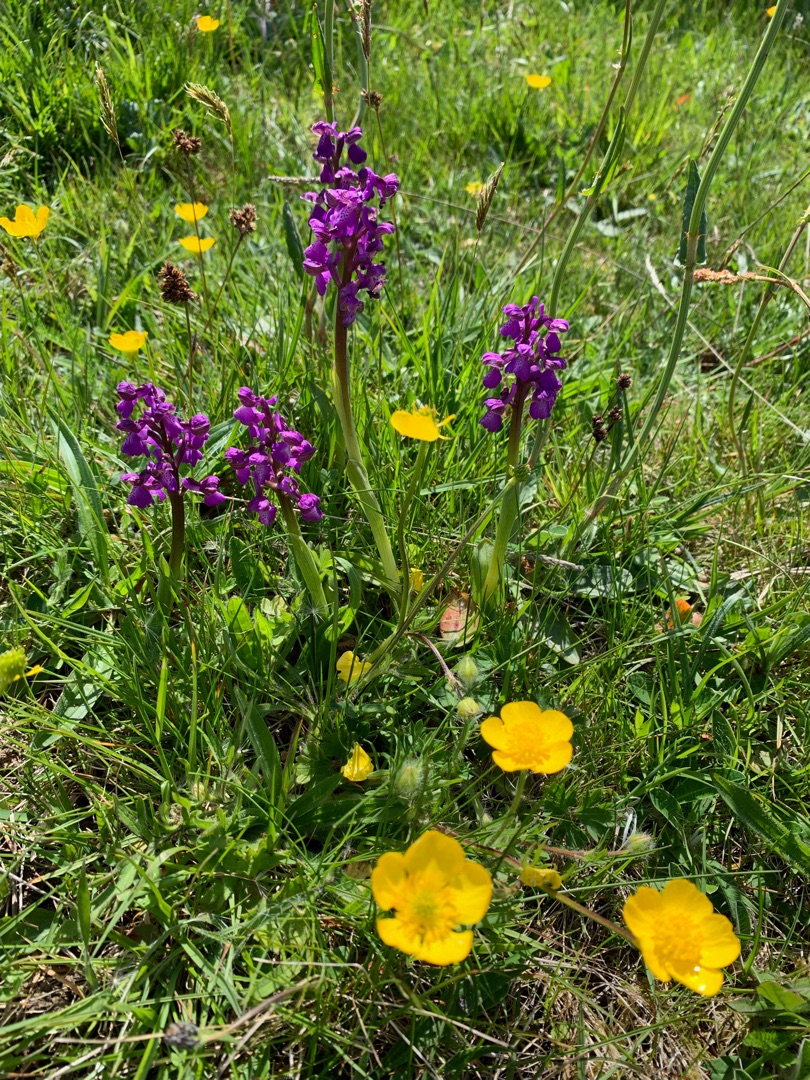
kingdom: Plantae
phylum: Tracheophyta
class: Liliopsida
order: Asparagales
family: Orchidaceae
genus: Anacamptis
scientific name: Anacamptis morio
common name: Salepgøgeurt
